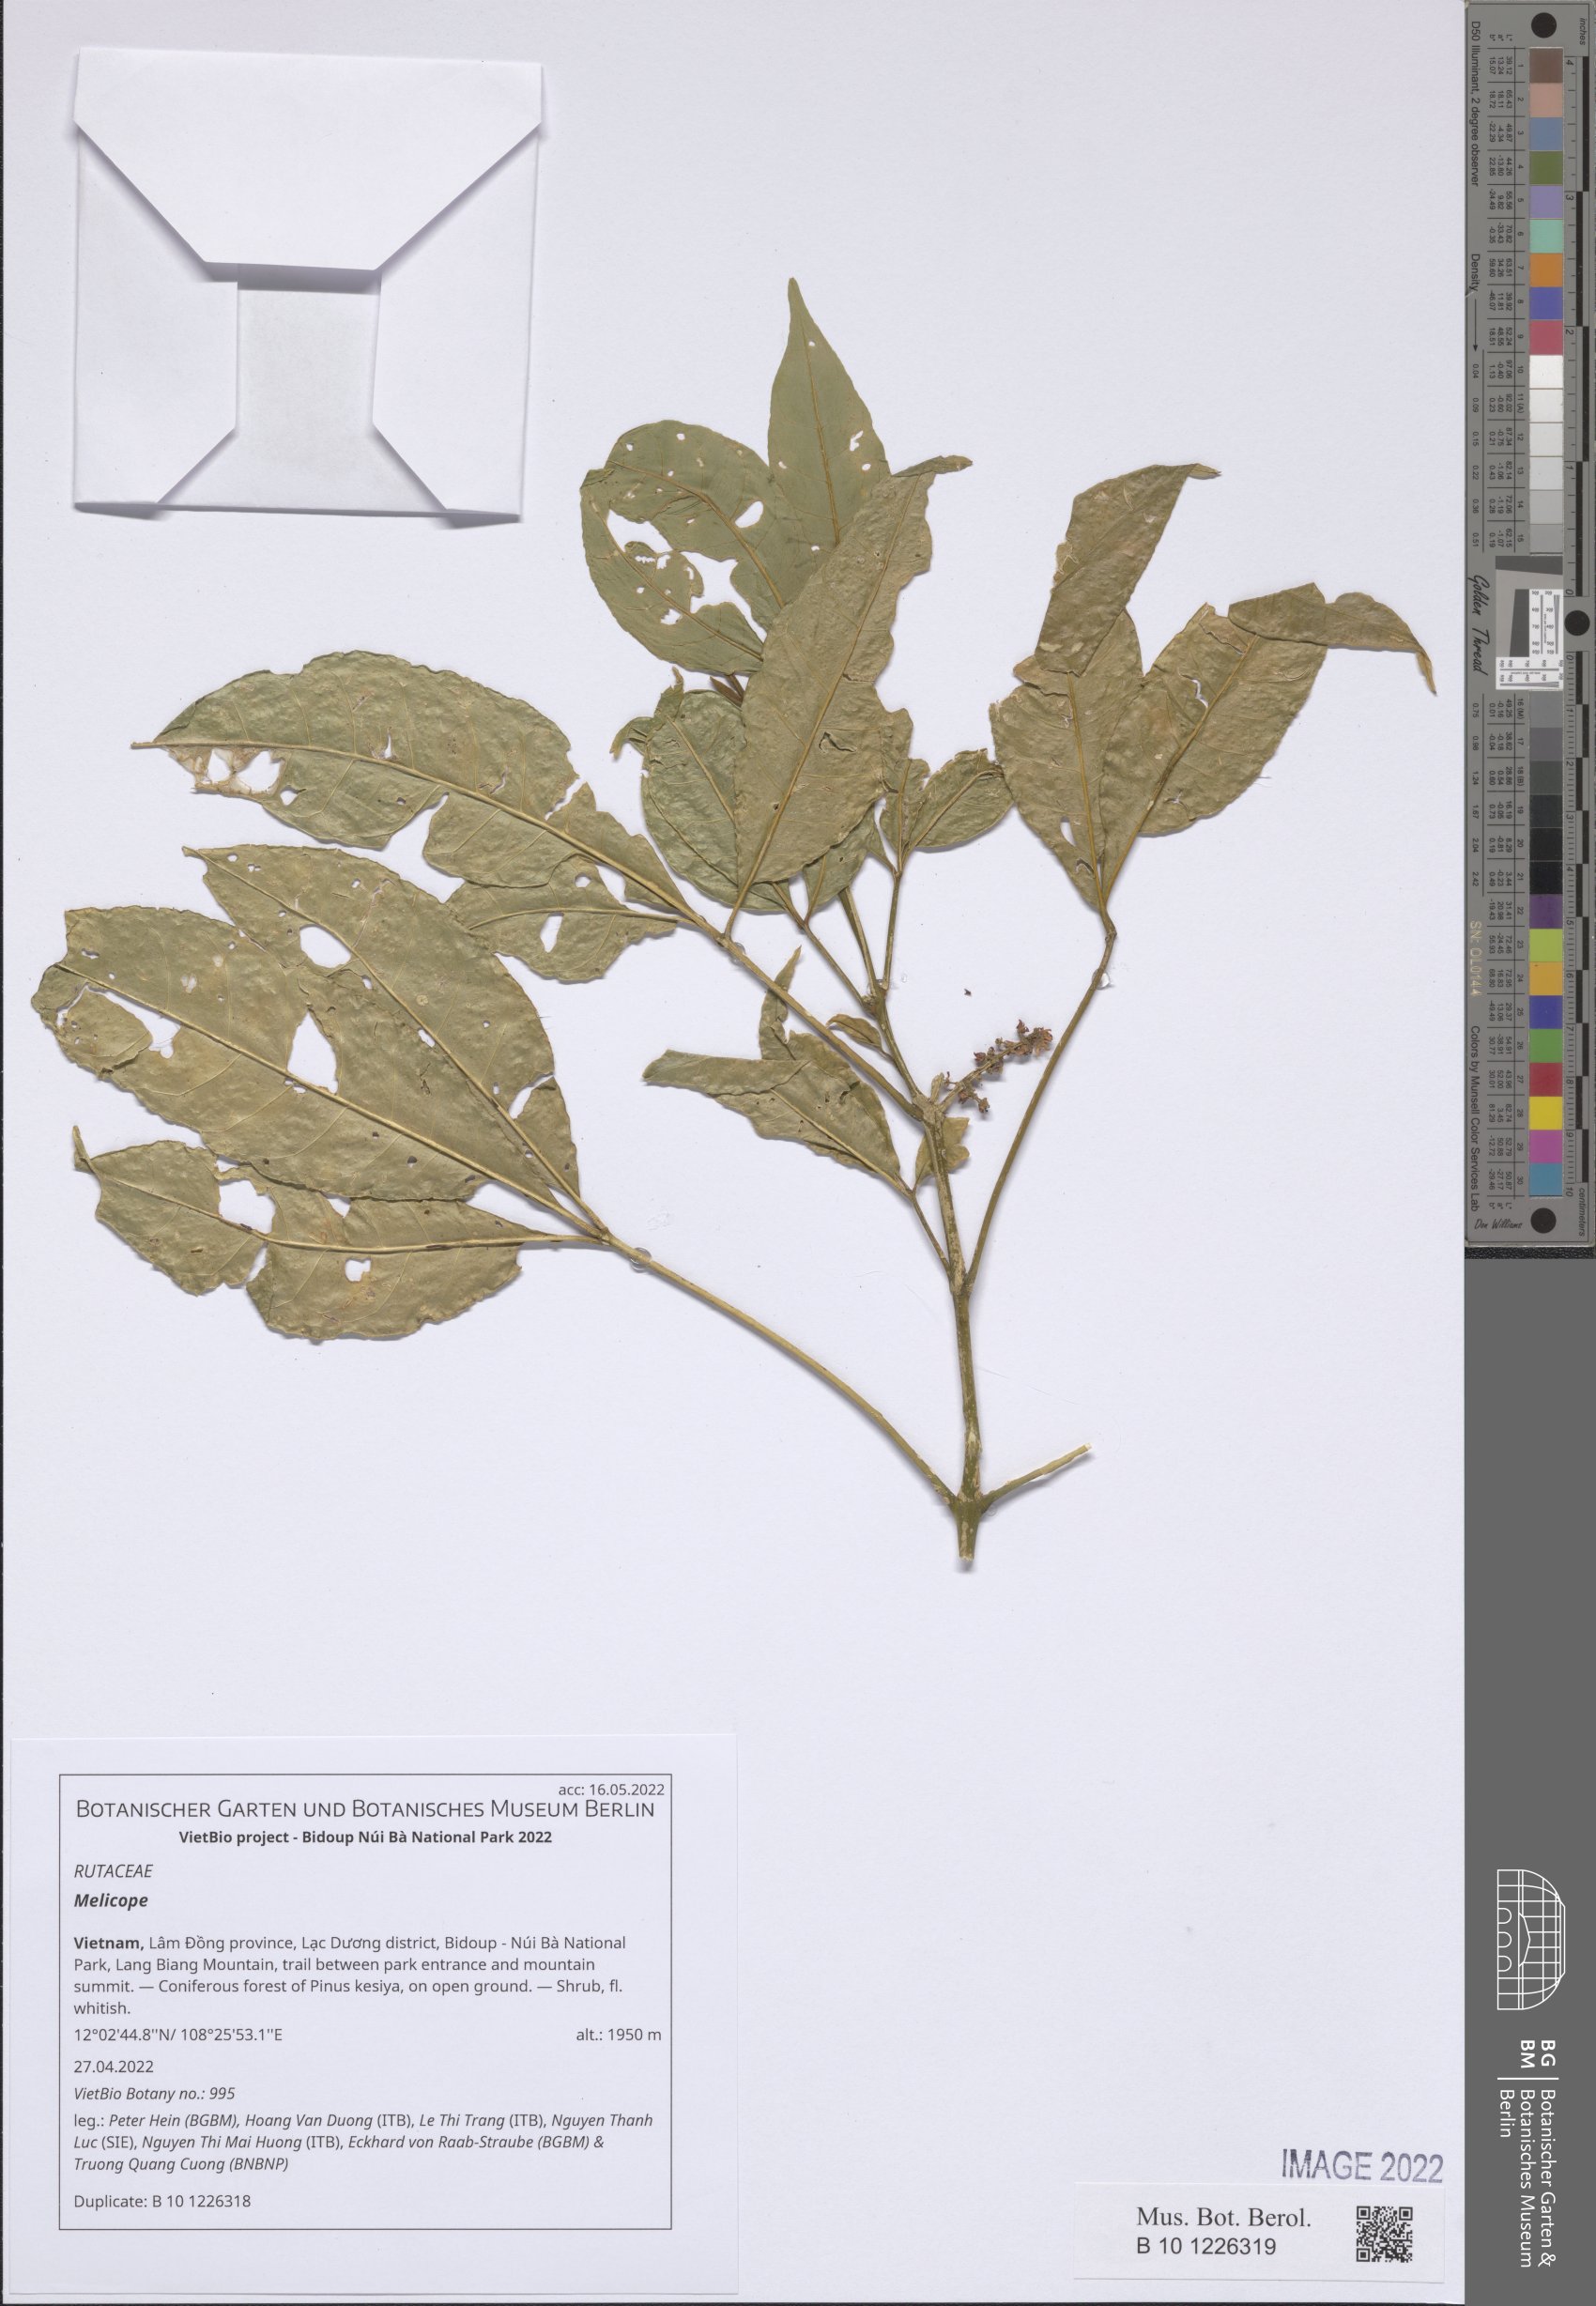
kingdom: Plantae
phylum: Tracheophyta
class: Magnoliopsida
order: Sapindales
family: Rutaceae
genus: Melicope
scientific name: Melicope
